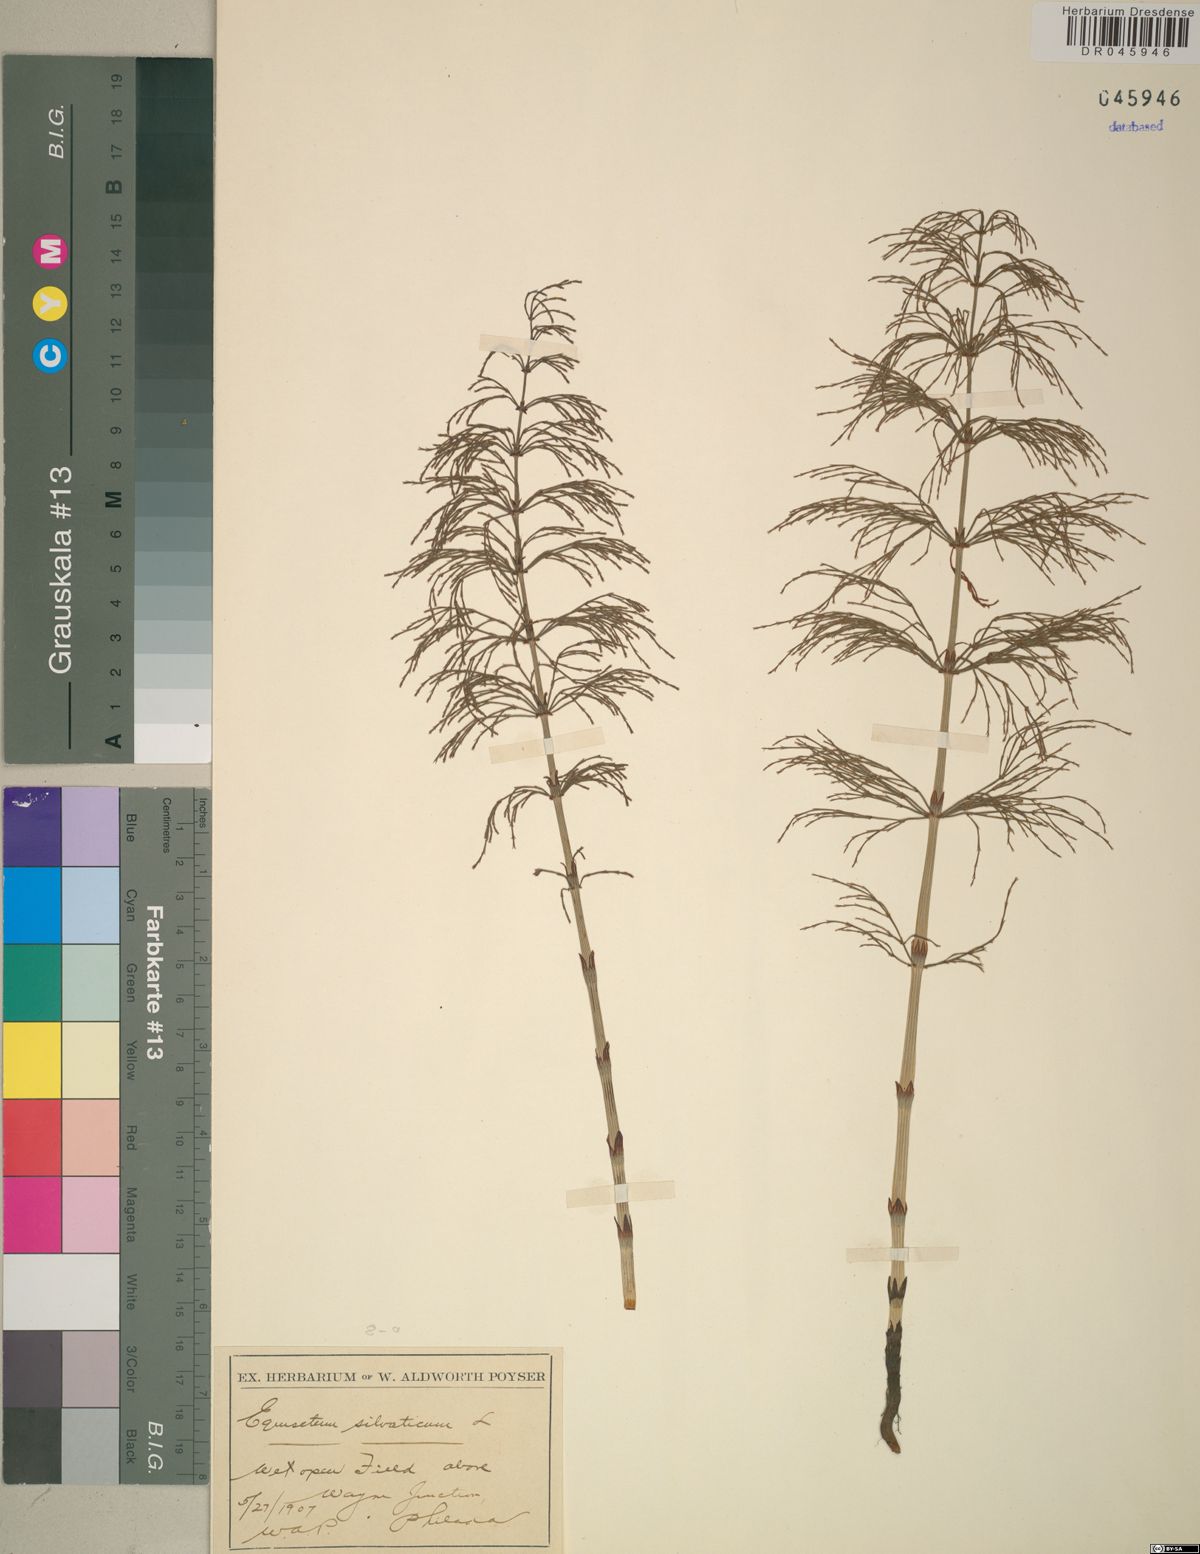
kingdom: Plantae
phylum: Tracheophyta
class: Polypodiopsida
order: Equisetales
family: Equisetaceae
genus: Equisetum
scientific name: Equisetum sylvaticum
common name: Wood horsetail
